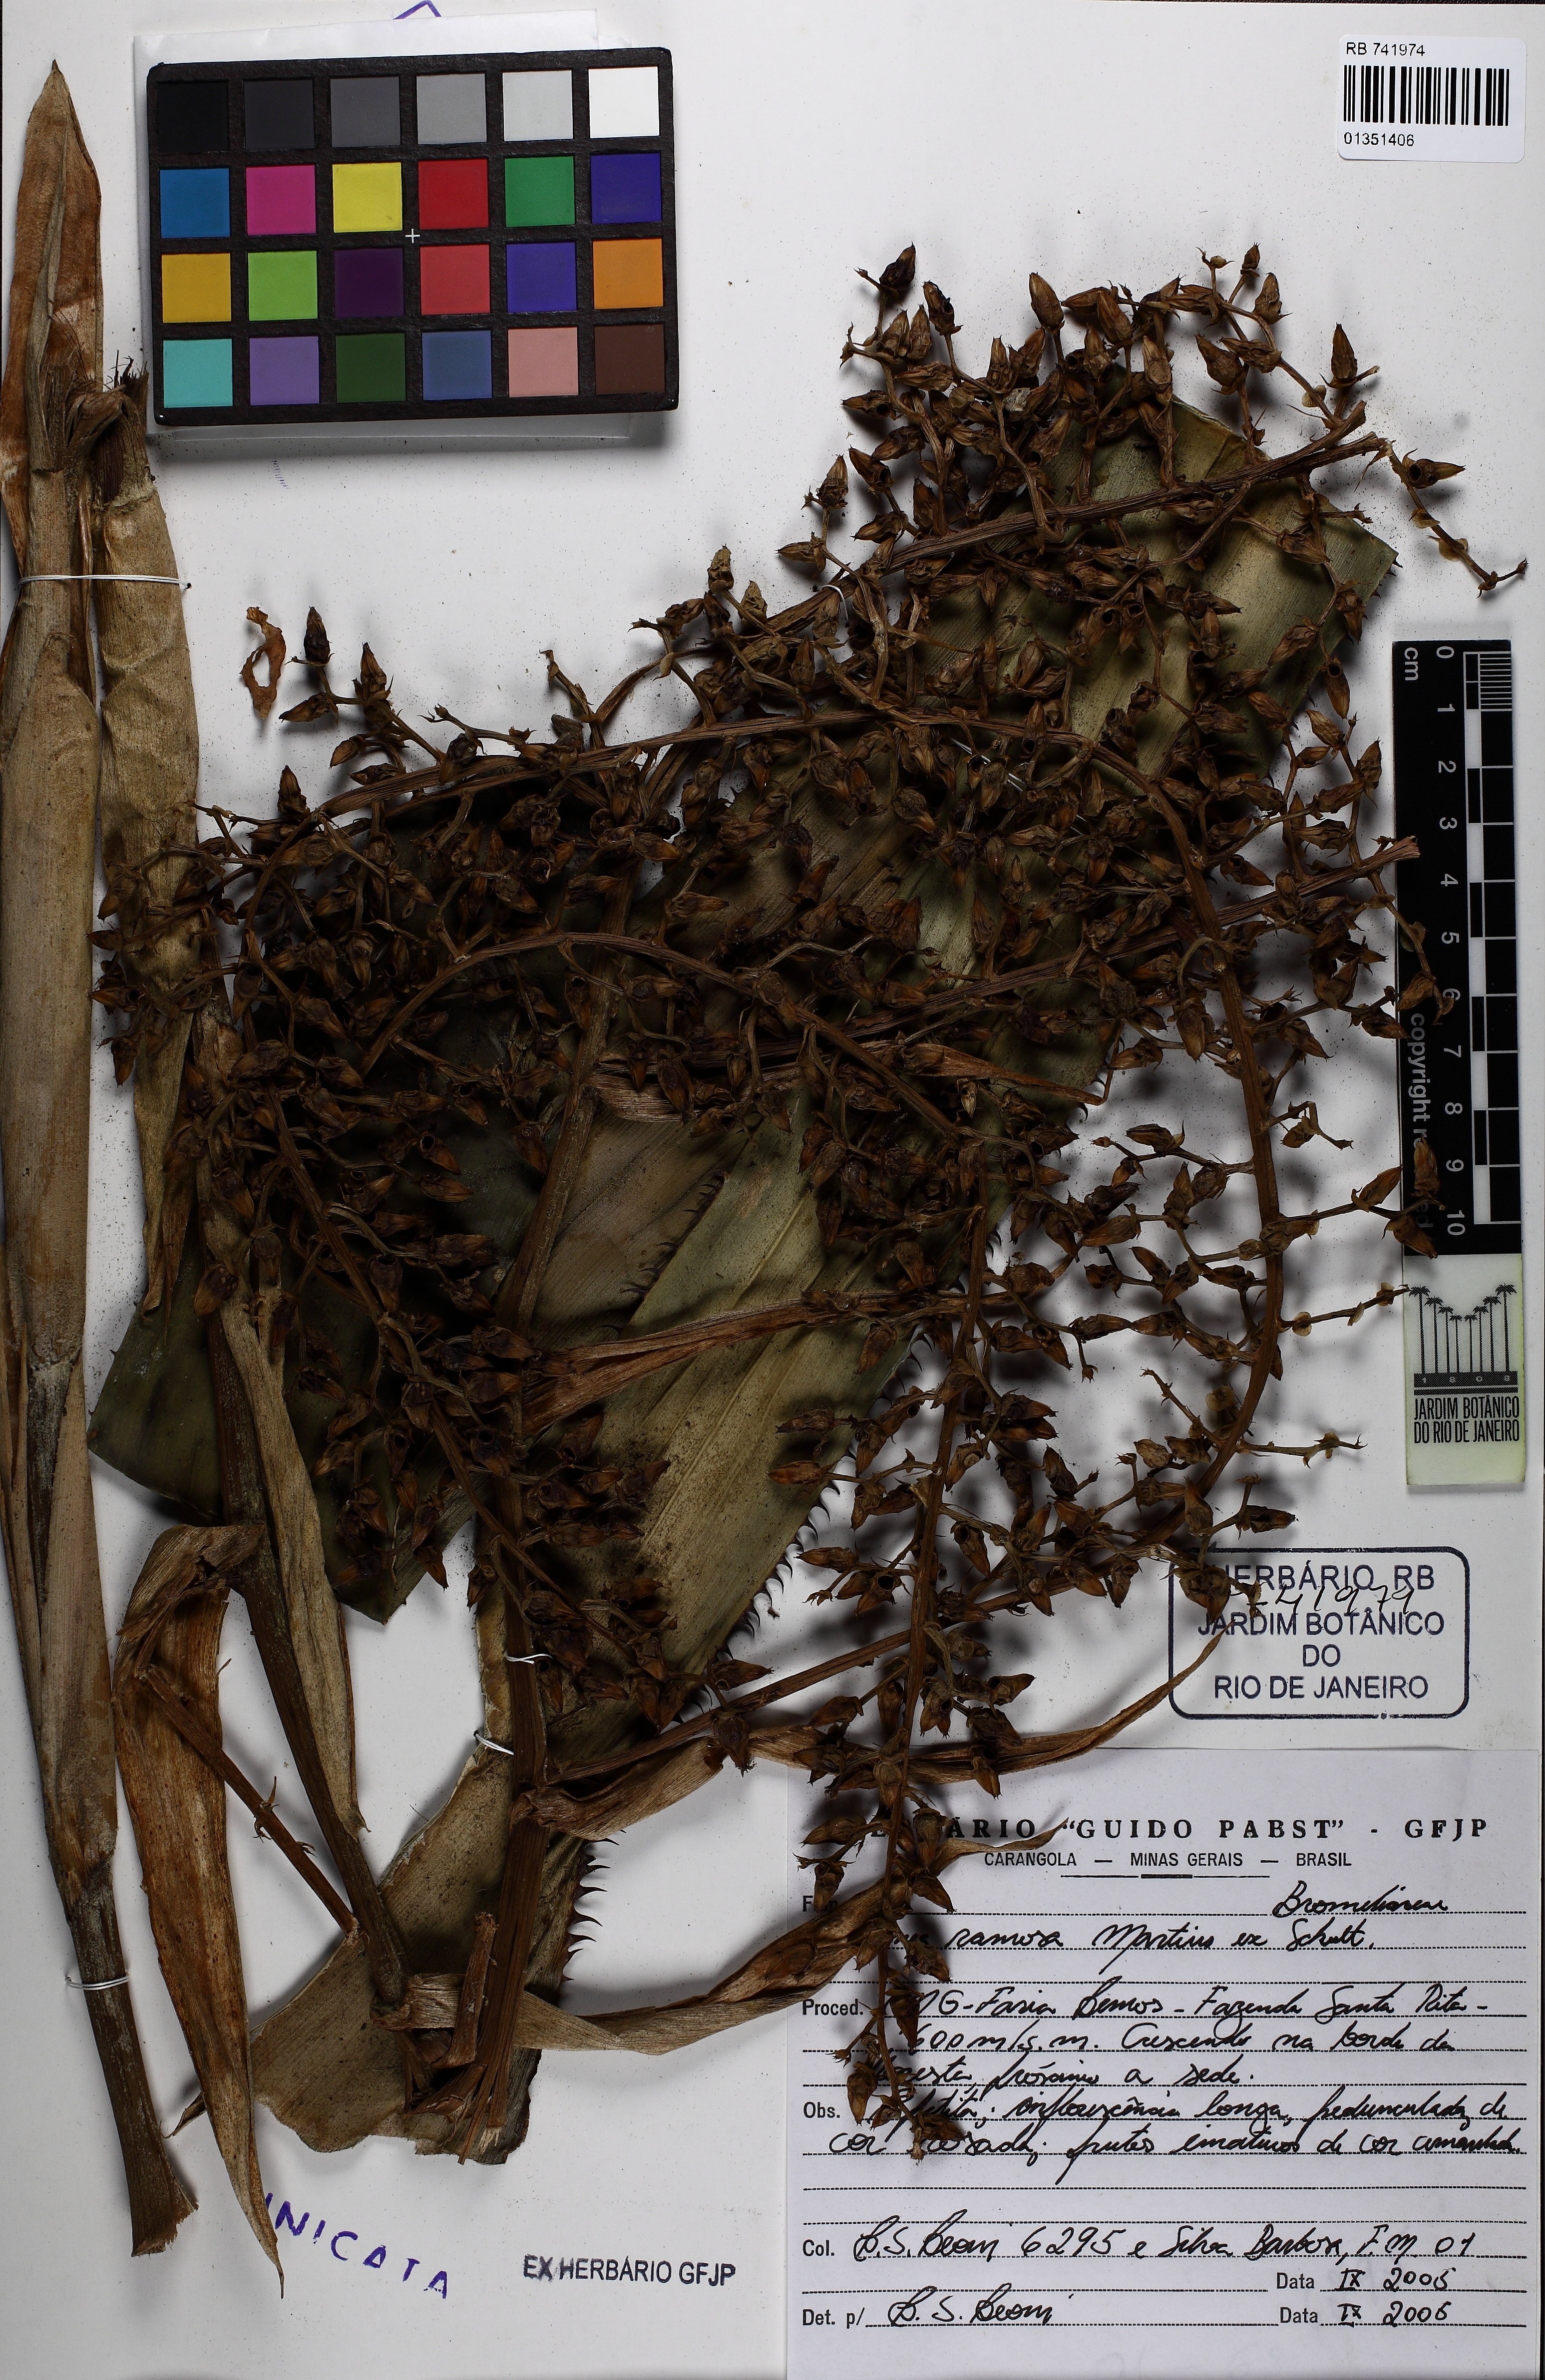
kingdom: Plantae
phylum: Tracheophyta
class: Liliopsida
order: Poales
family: Bromeliaceae
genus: Aechmea
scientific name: Aechmea ramosa
